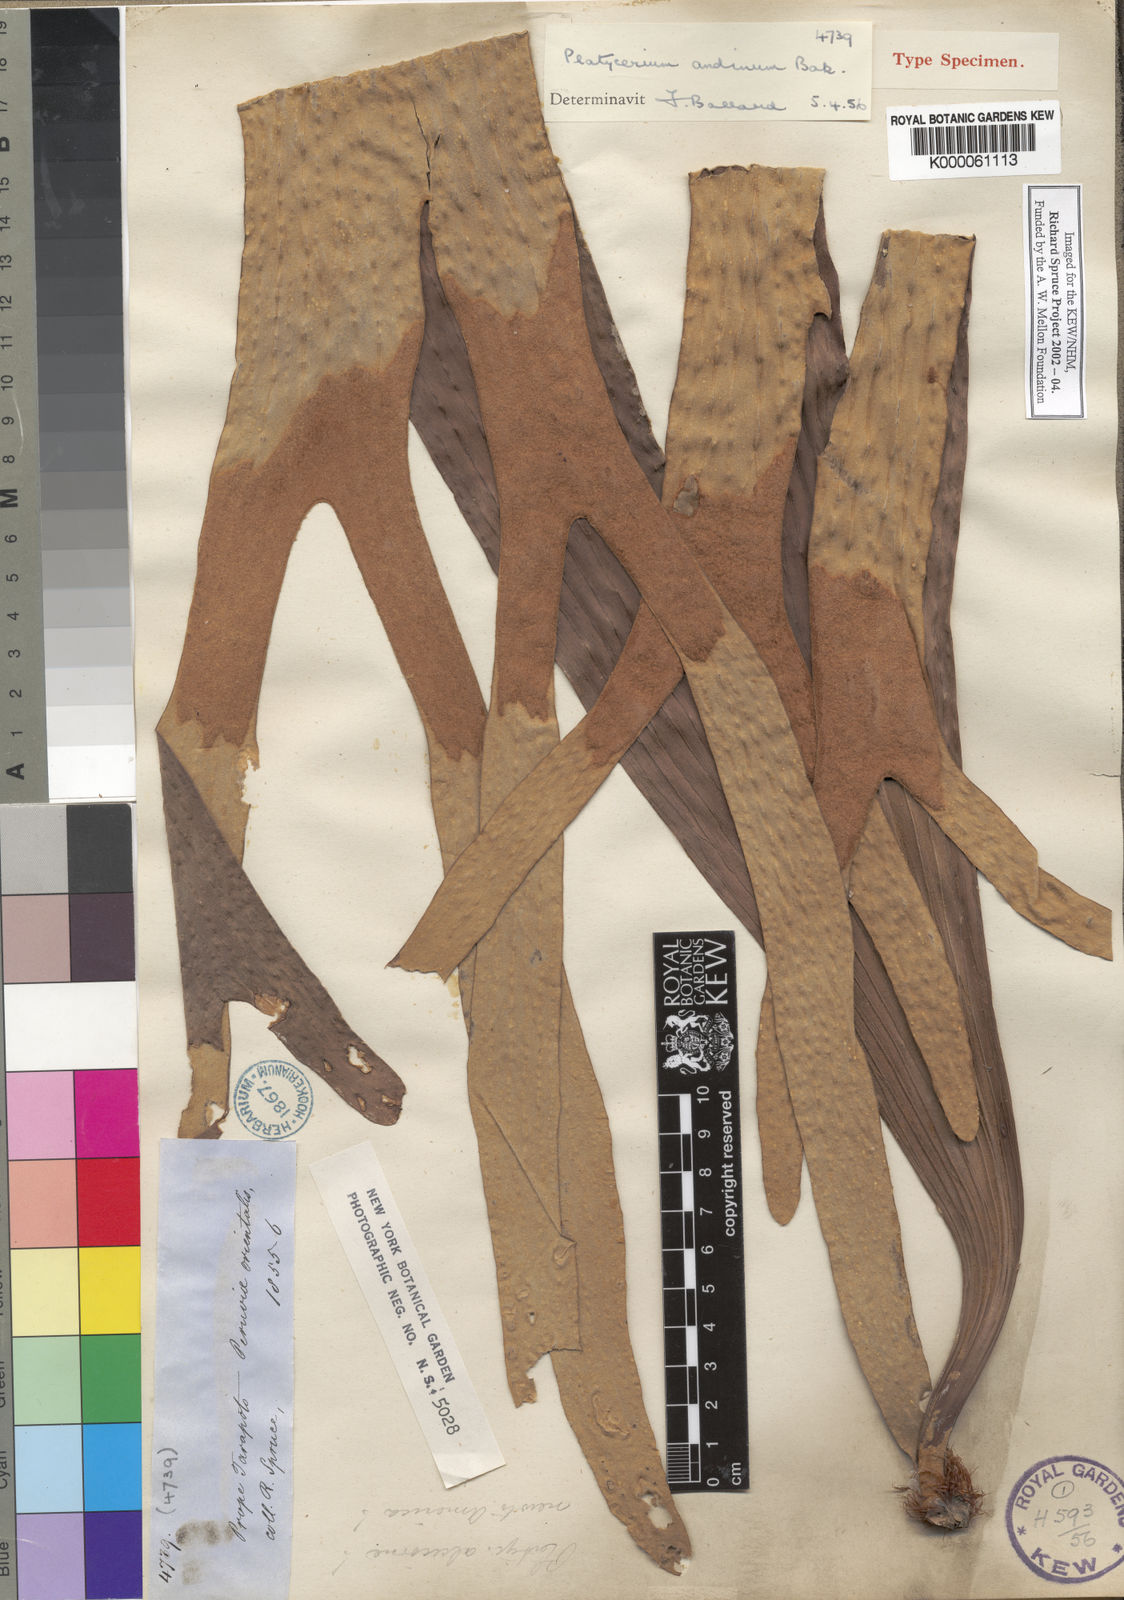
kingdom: Plantae
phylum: Tracheophyta
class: Polypodiopsida
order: Polypodiales
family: Polypodiaceae
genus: Platycerium
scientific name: Platycerium andinum
